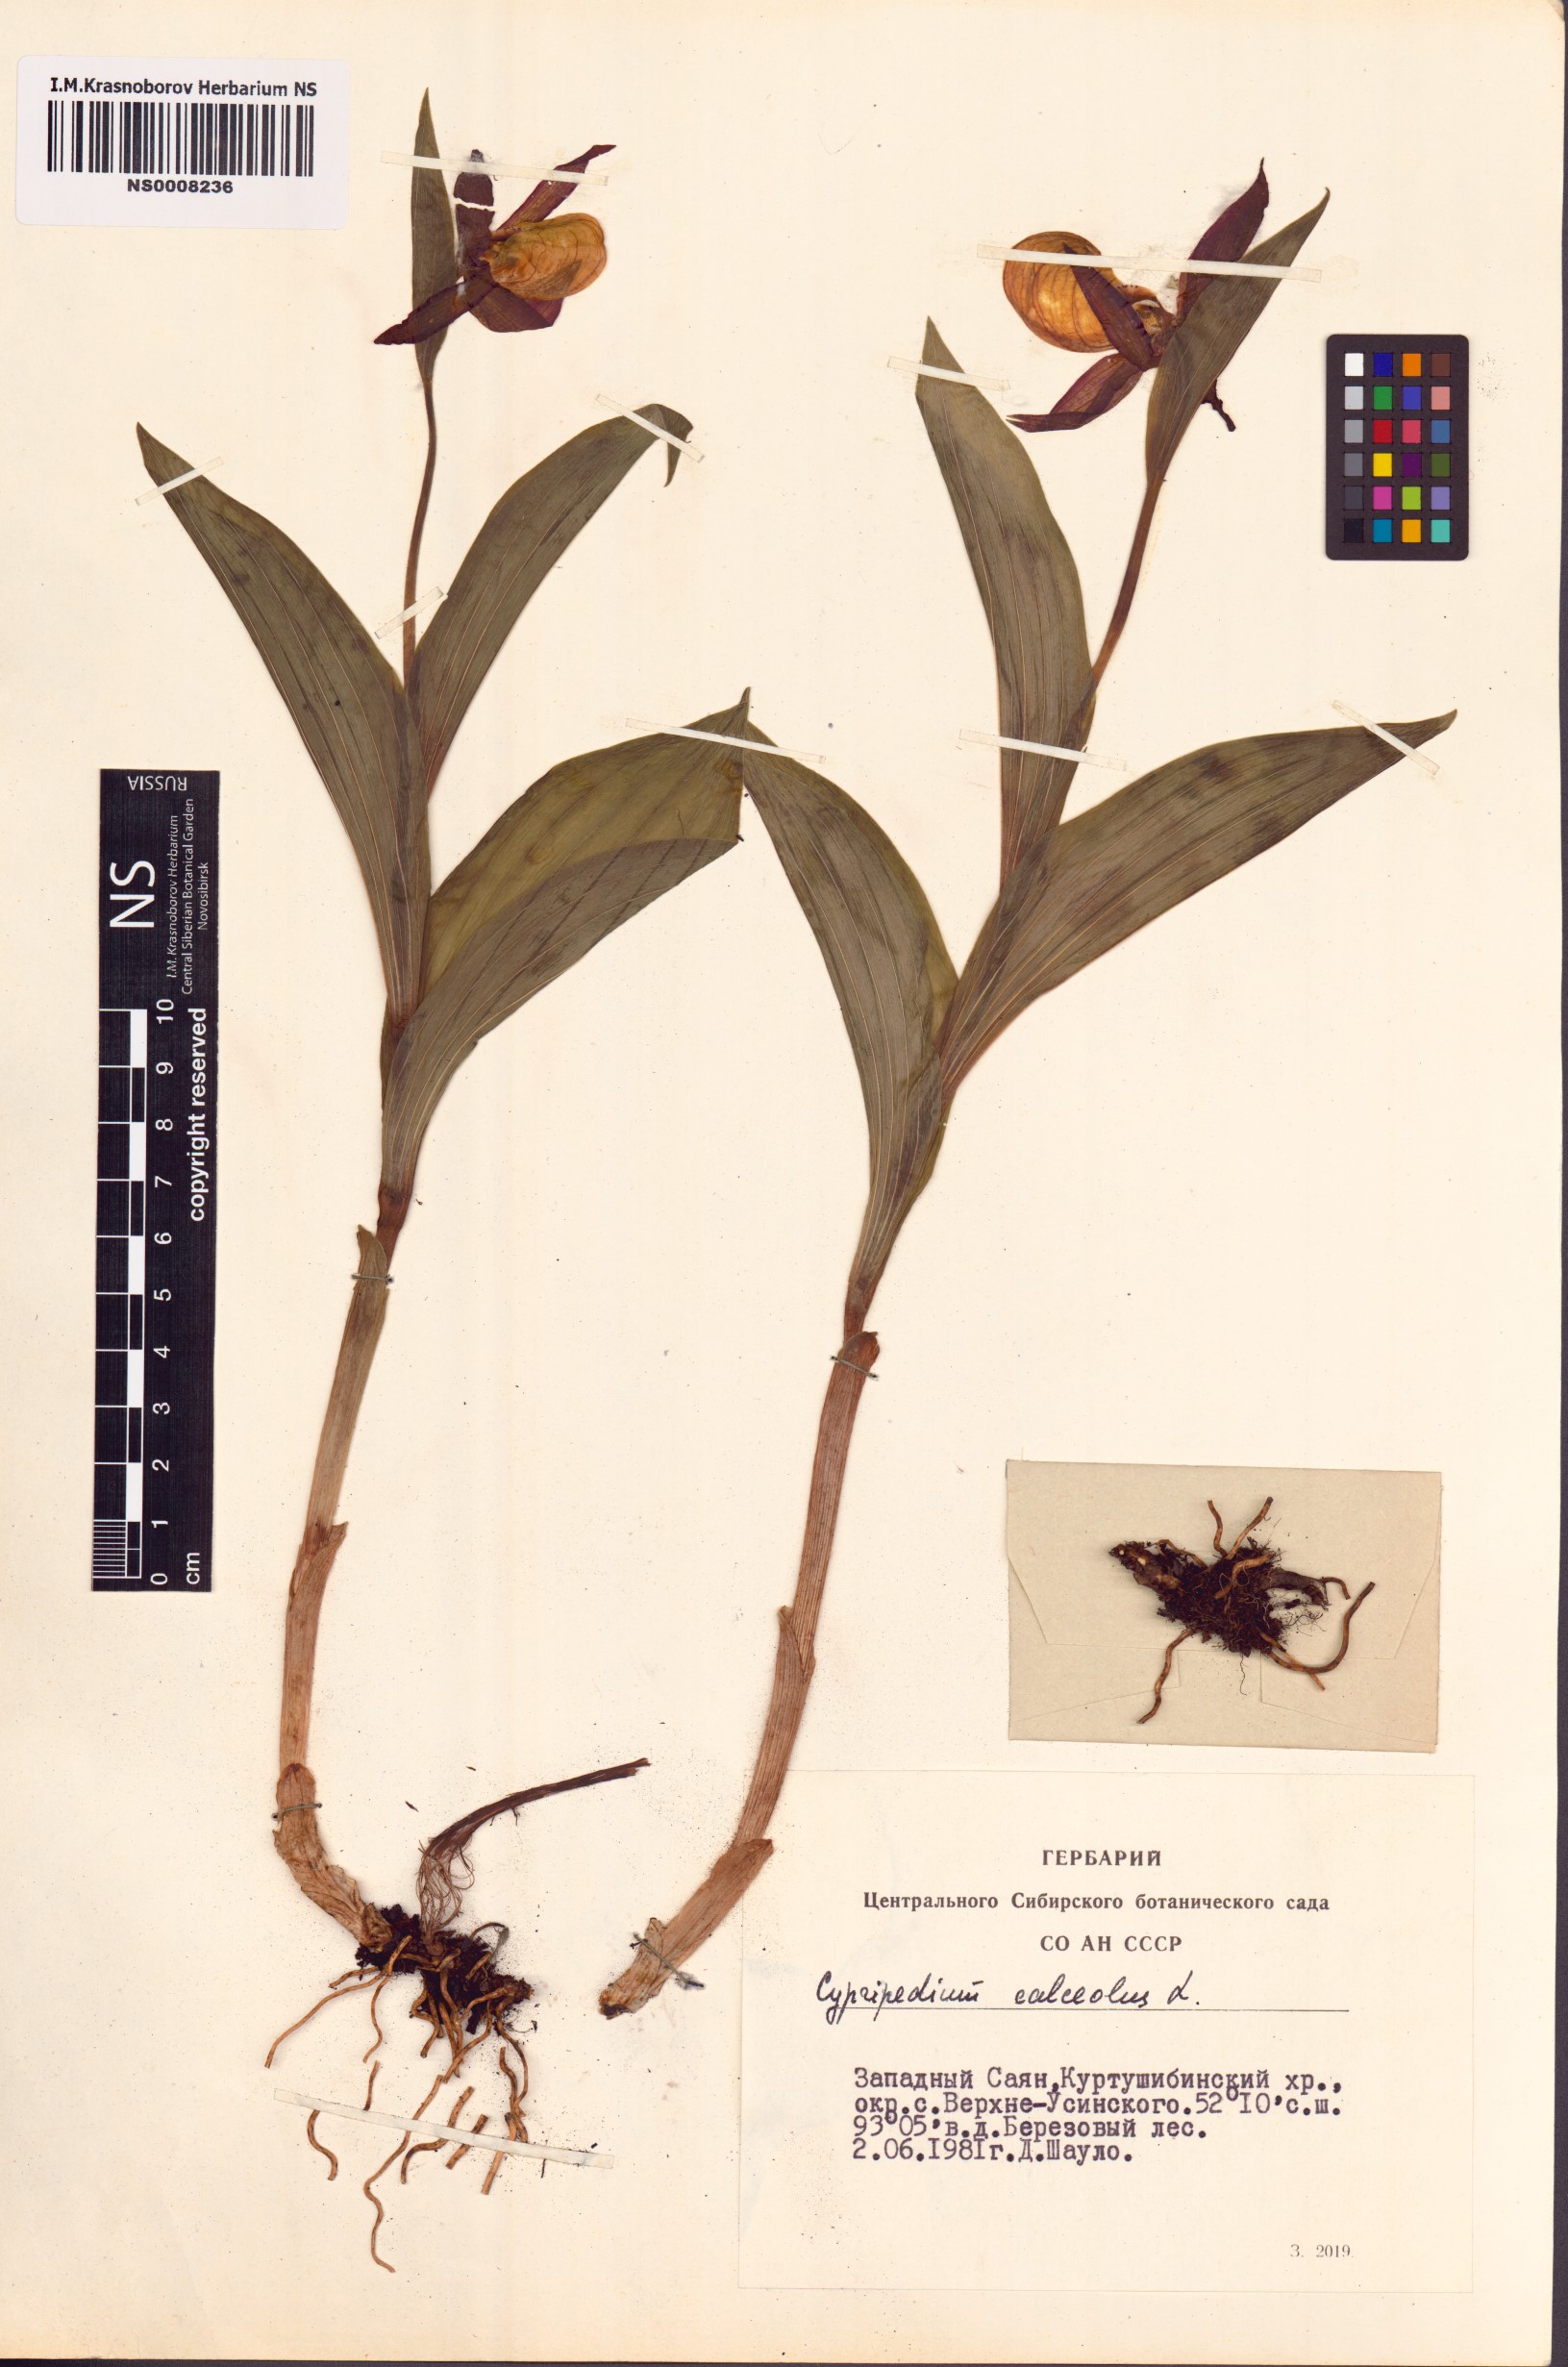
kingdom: Plantae
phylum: Tracheophyta
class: Liliopsida
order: Asparagales
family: Orchidaceae
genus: Cypripedium
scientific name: Cypripedium calceolus
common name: Lady's-slipper
